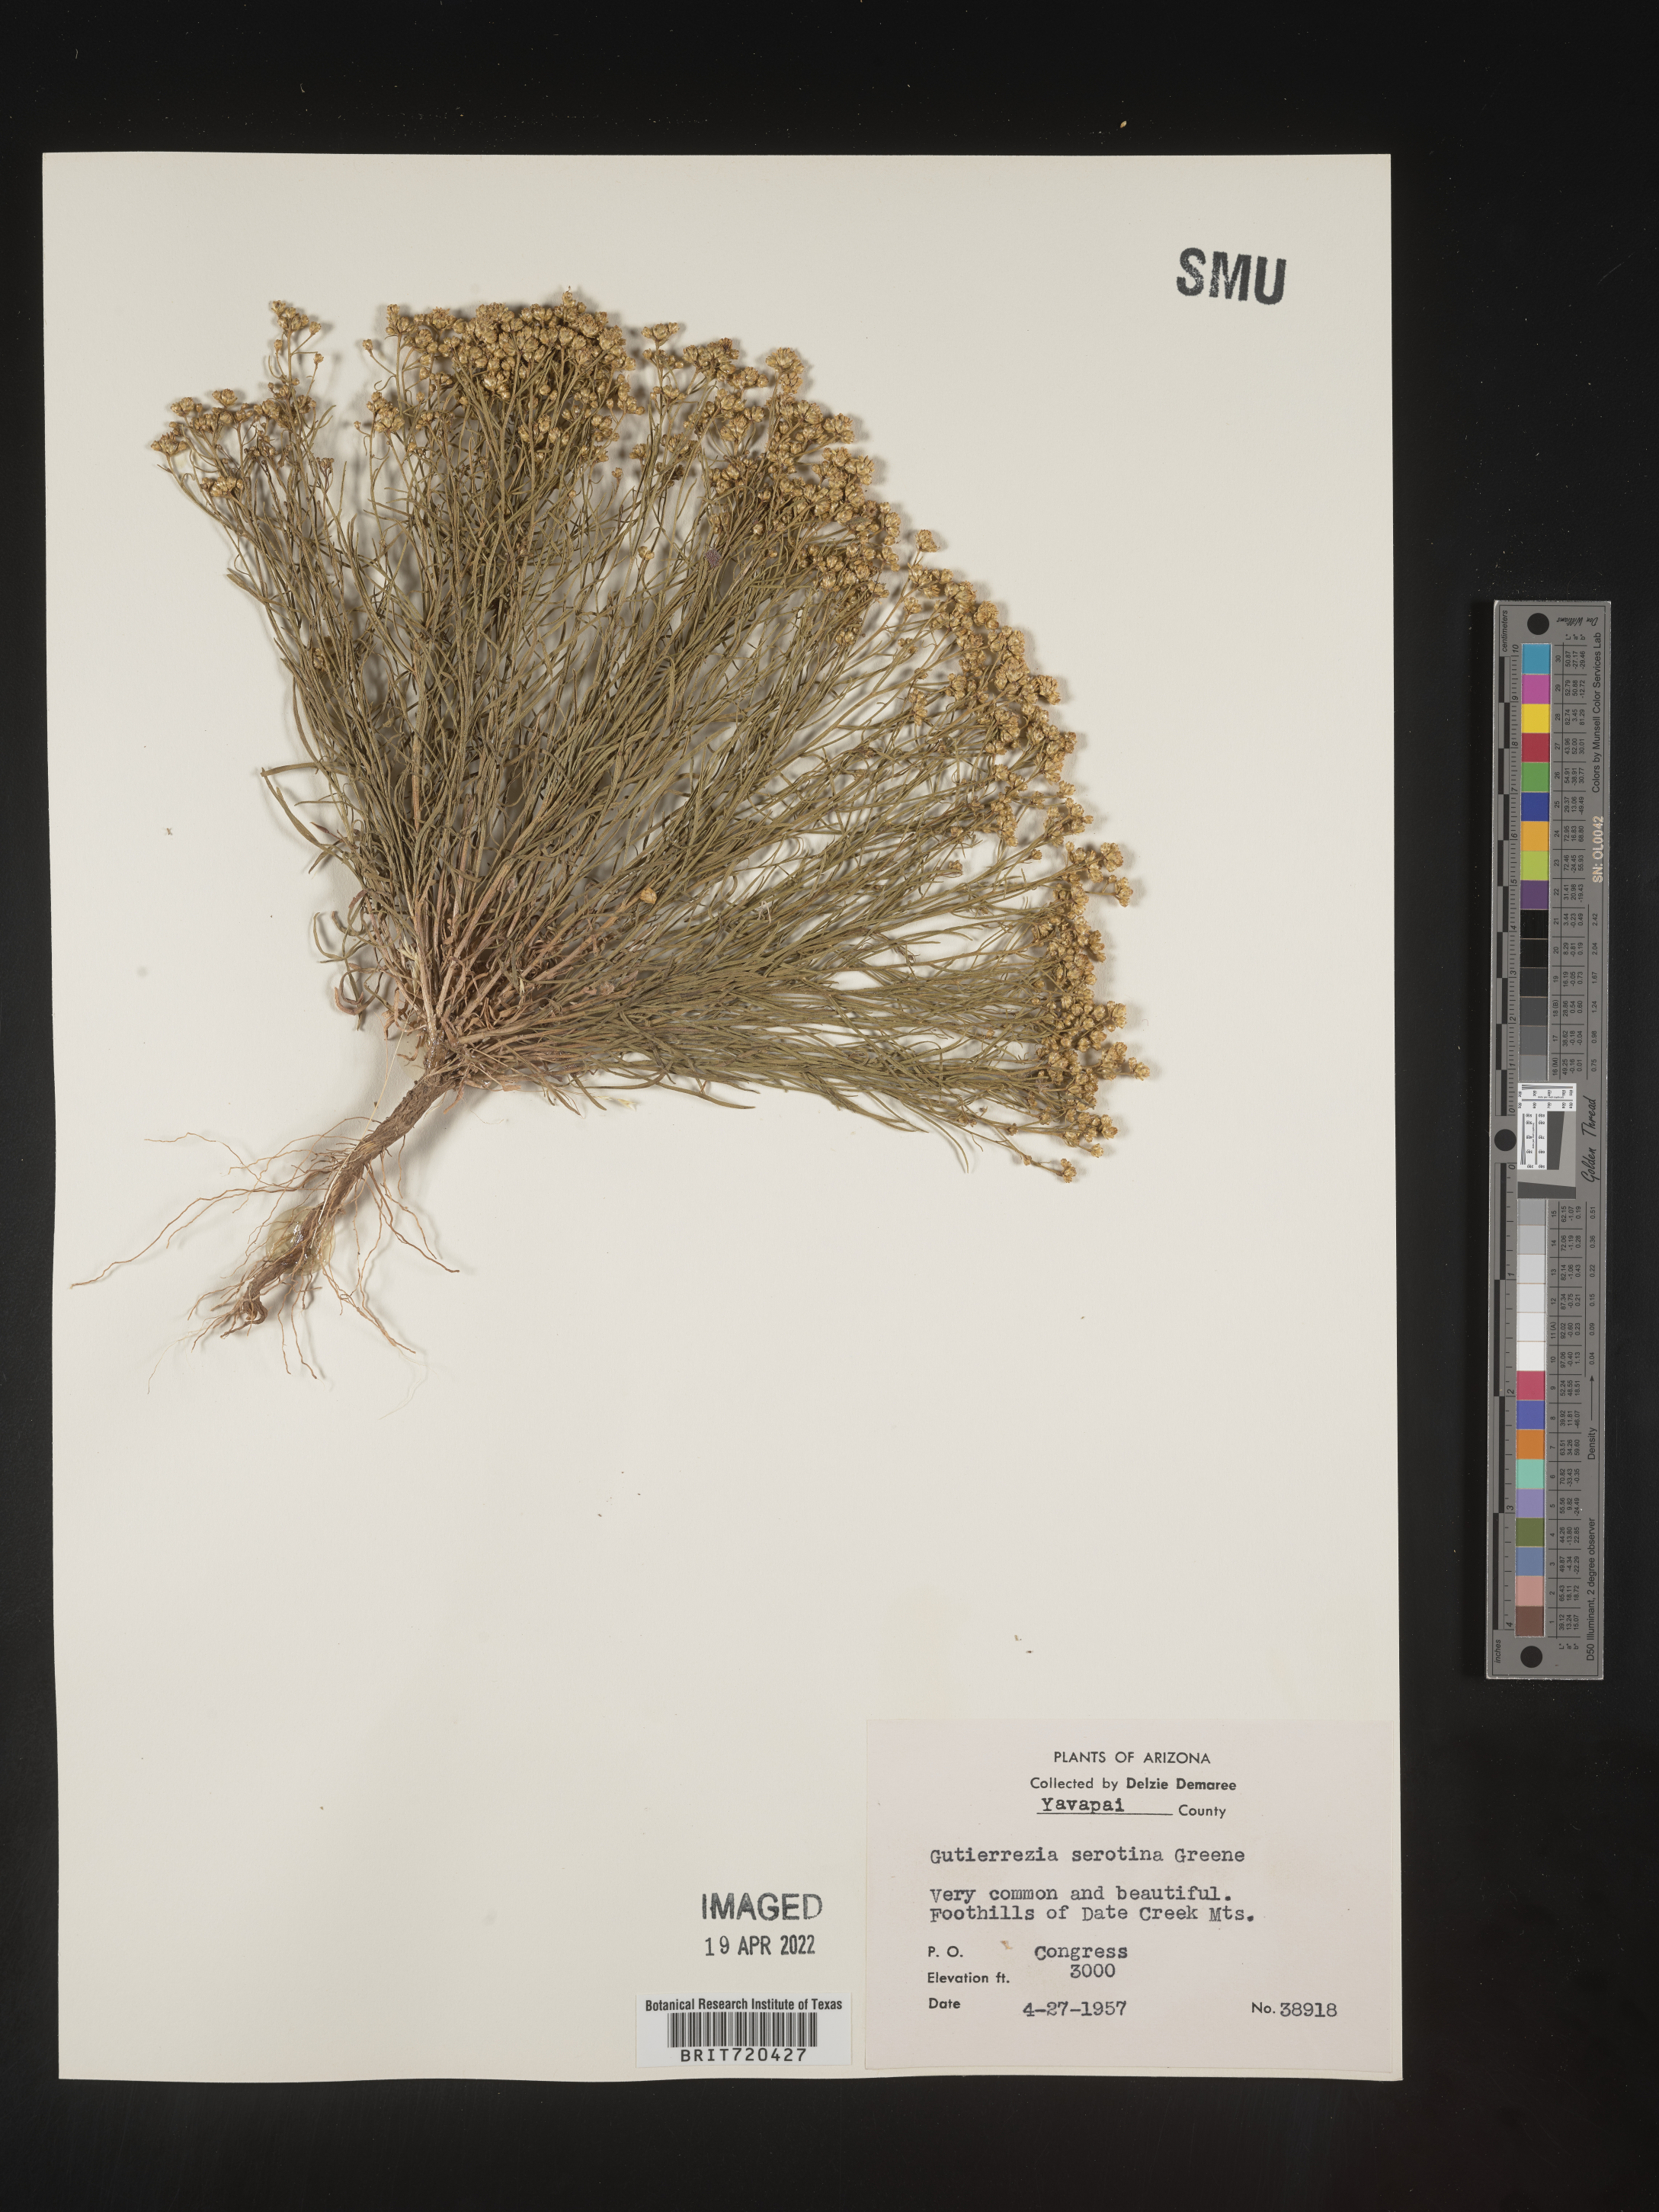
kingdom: Plantae
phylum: Tracheophyta
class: Magnoliopsida
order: Asterales
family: Asteraceae
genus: Gutierrezia
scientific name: Gutierrezia sarothrae
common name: Broom snakeweed
